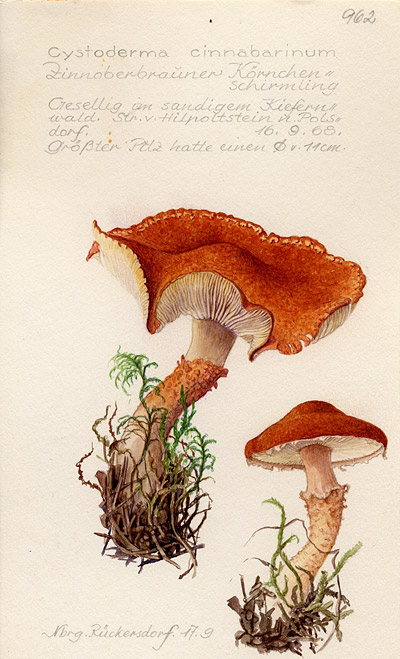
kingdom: Fungi
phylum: Basidiomycota
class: Agaricomycetes
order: Agaricales
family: Agaricaceae
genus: Cystodermella
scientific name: Cystodermella terryi
